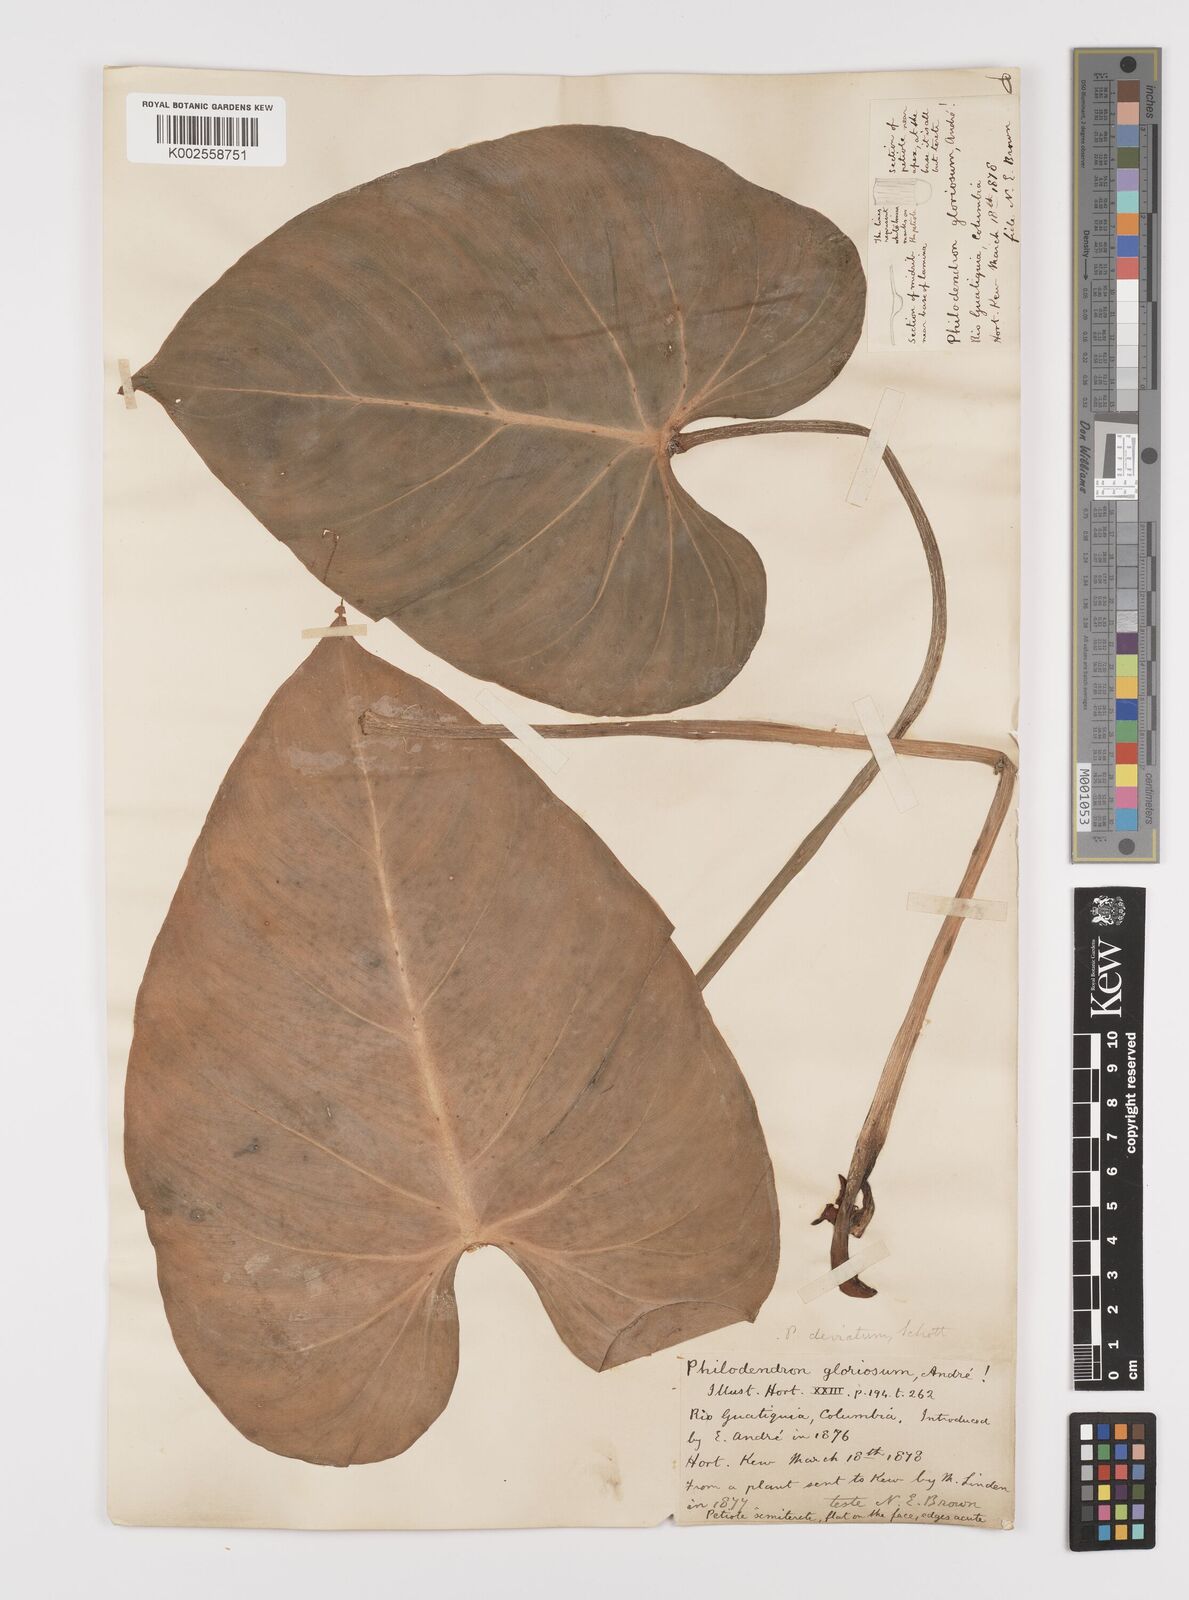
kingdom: Plantae
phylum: Tracheophyta
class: Liliopsida
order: Alismatales
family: Araceae
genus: Philodendron
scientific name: Philodendron jacquinii
